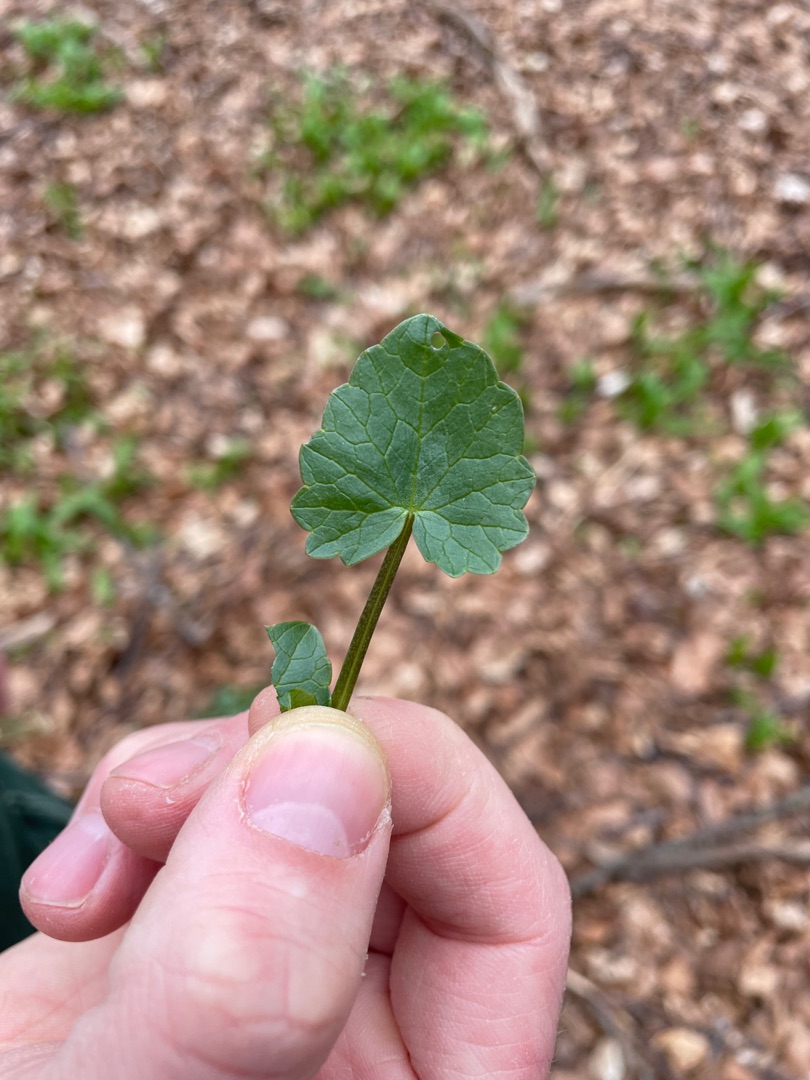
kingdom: Plantae
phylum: Tracheophyta
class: Magnoliopsida
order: Ranunculales
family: Ranunculaceae
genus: Ficaria
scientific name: Ficaria verna
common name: Vorterod
